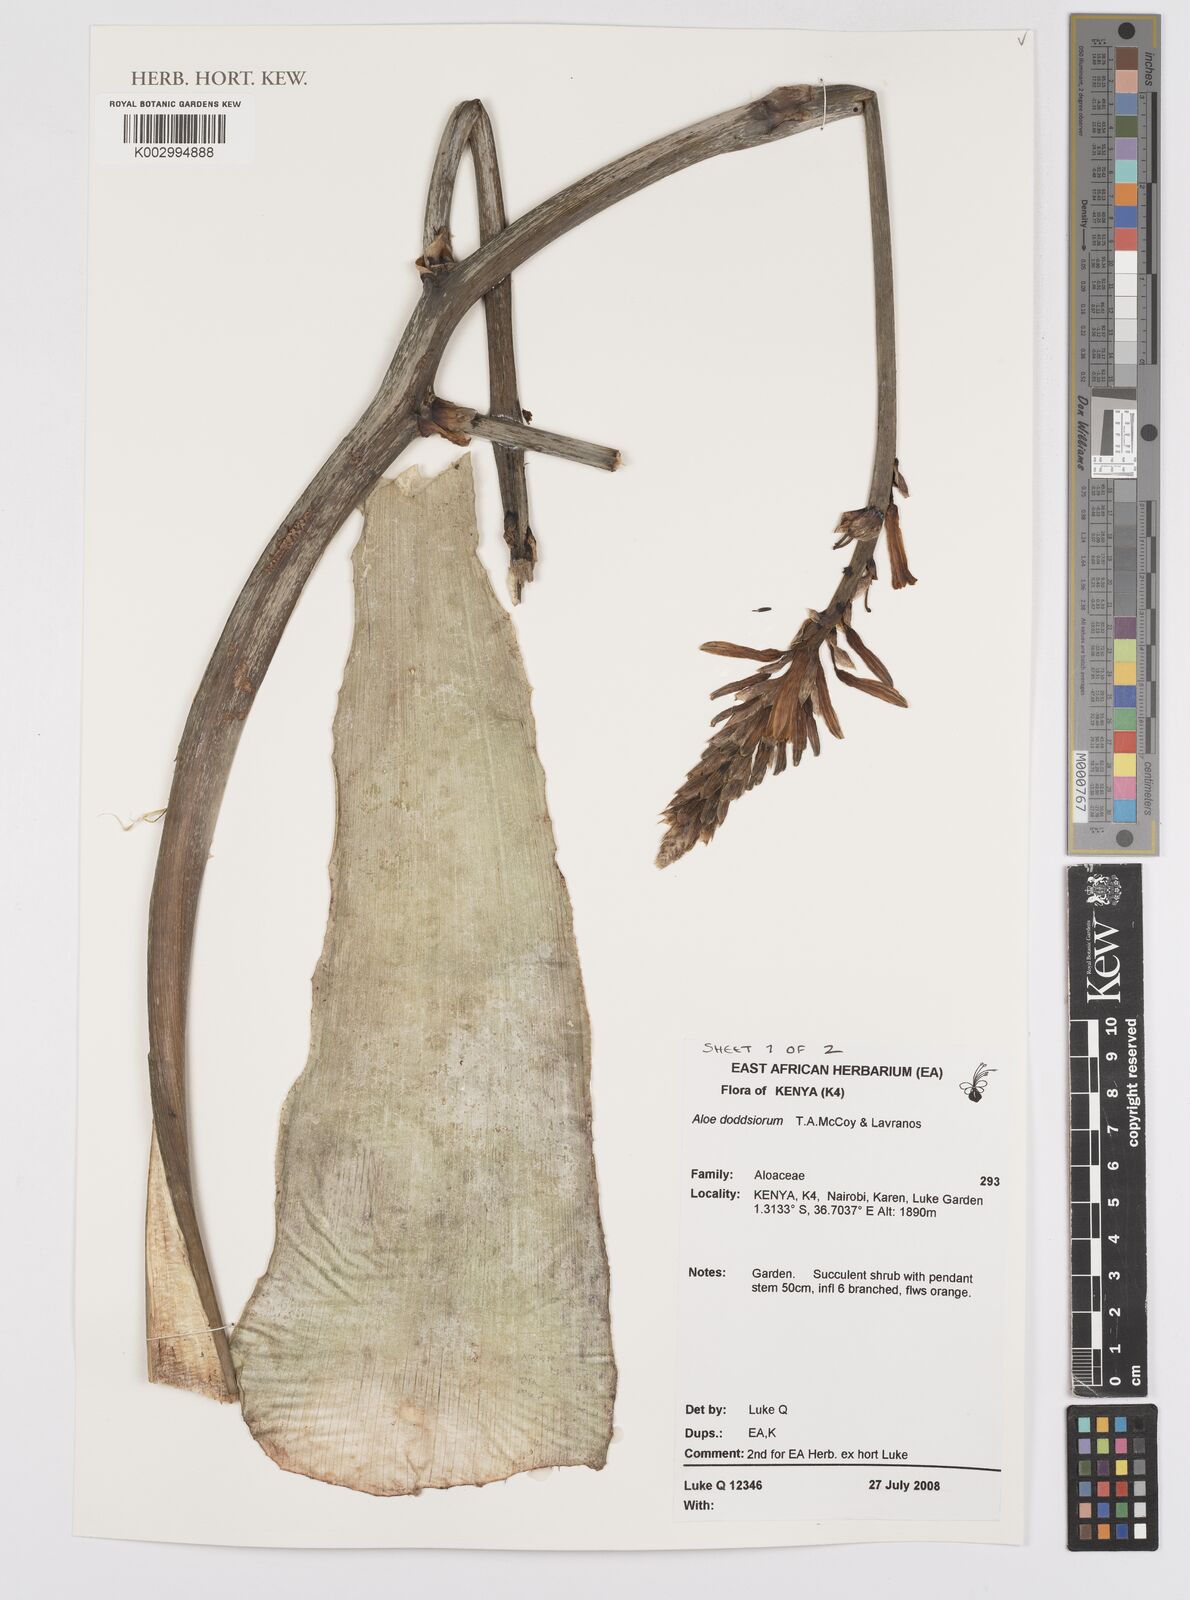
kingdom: Plantae
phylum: Tracheophyta
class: Liliopsida
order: Asparagales
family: Asphodelaceae
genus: Aloe
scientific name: Aloe doddsiorum
